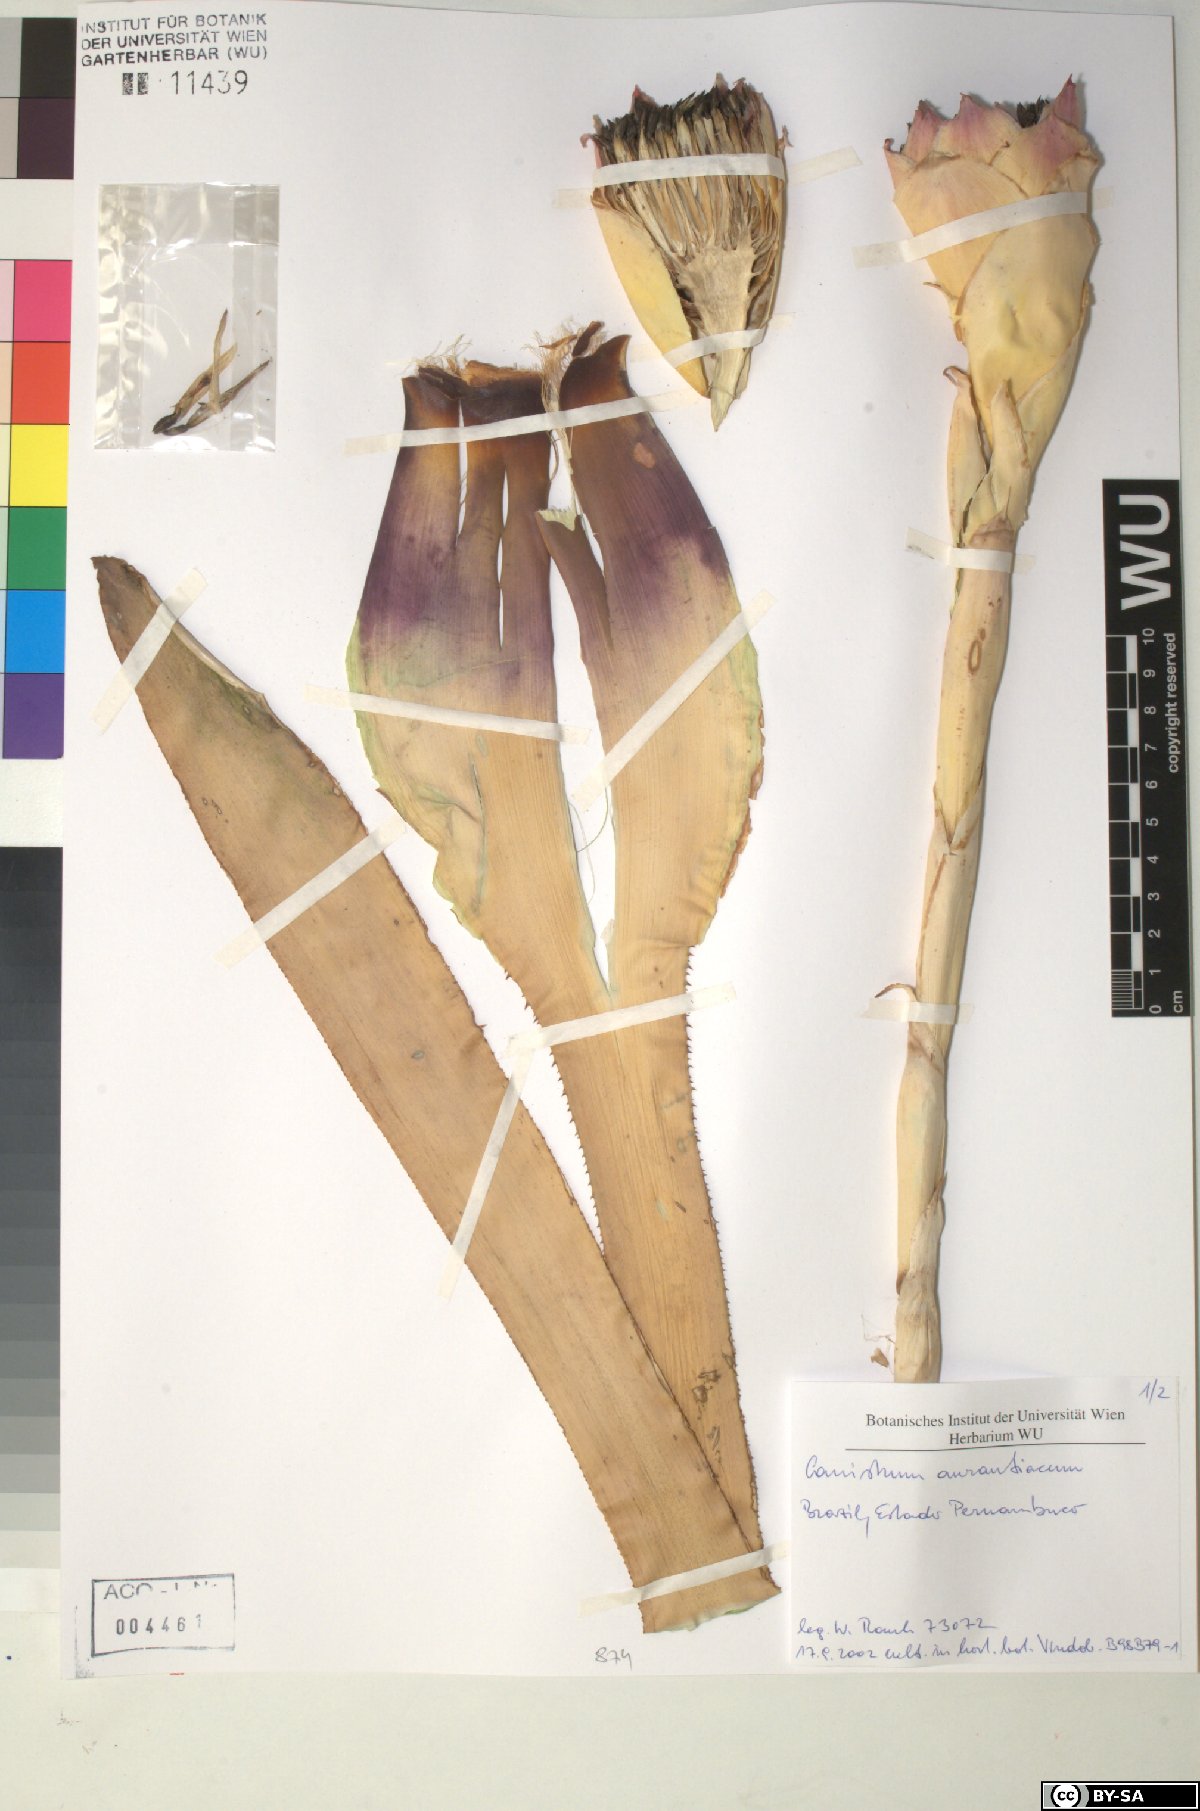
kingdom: Plantae
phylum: Tracheophyta
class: Liliopsida
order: Poales
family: Bromeliaceae
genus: Canistrum
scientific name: Canistrum aurantiacum
